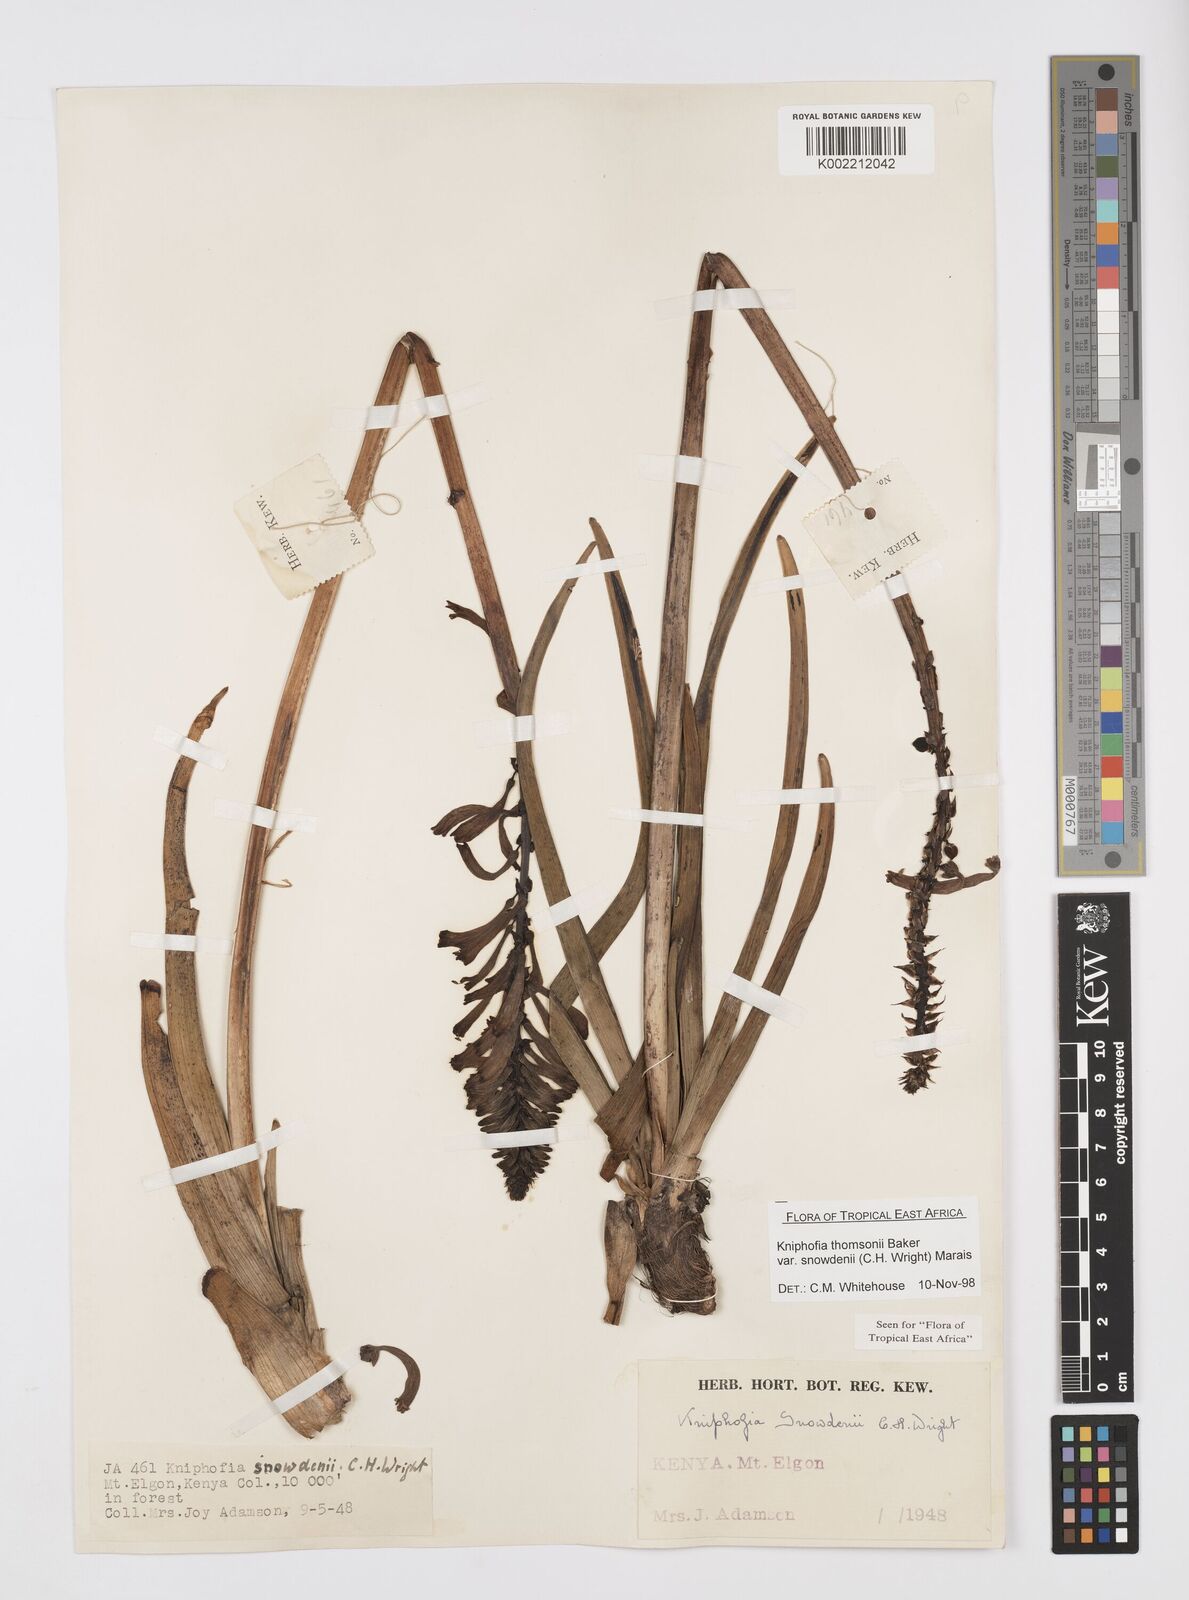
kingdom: Plantae
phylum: Tracheophyta
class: Liliopsida
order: Asparagales
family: Asphodelaceae
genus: Kniphofia
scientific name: Kniphofia
